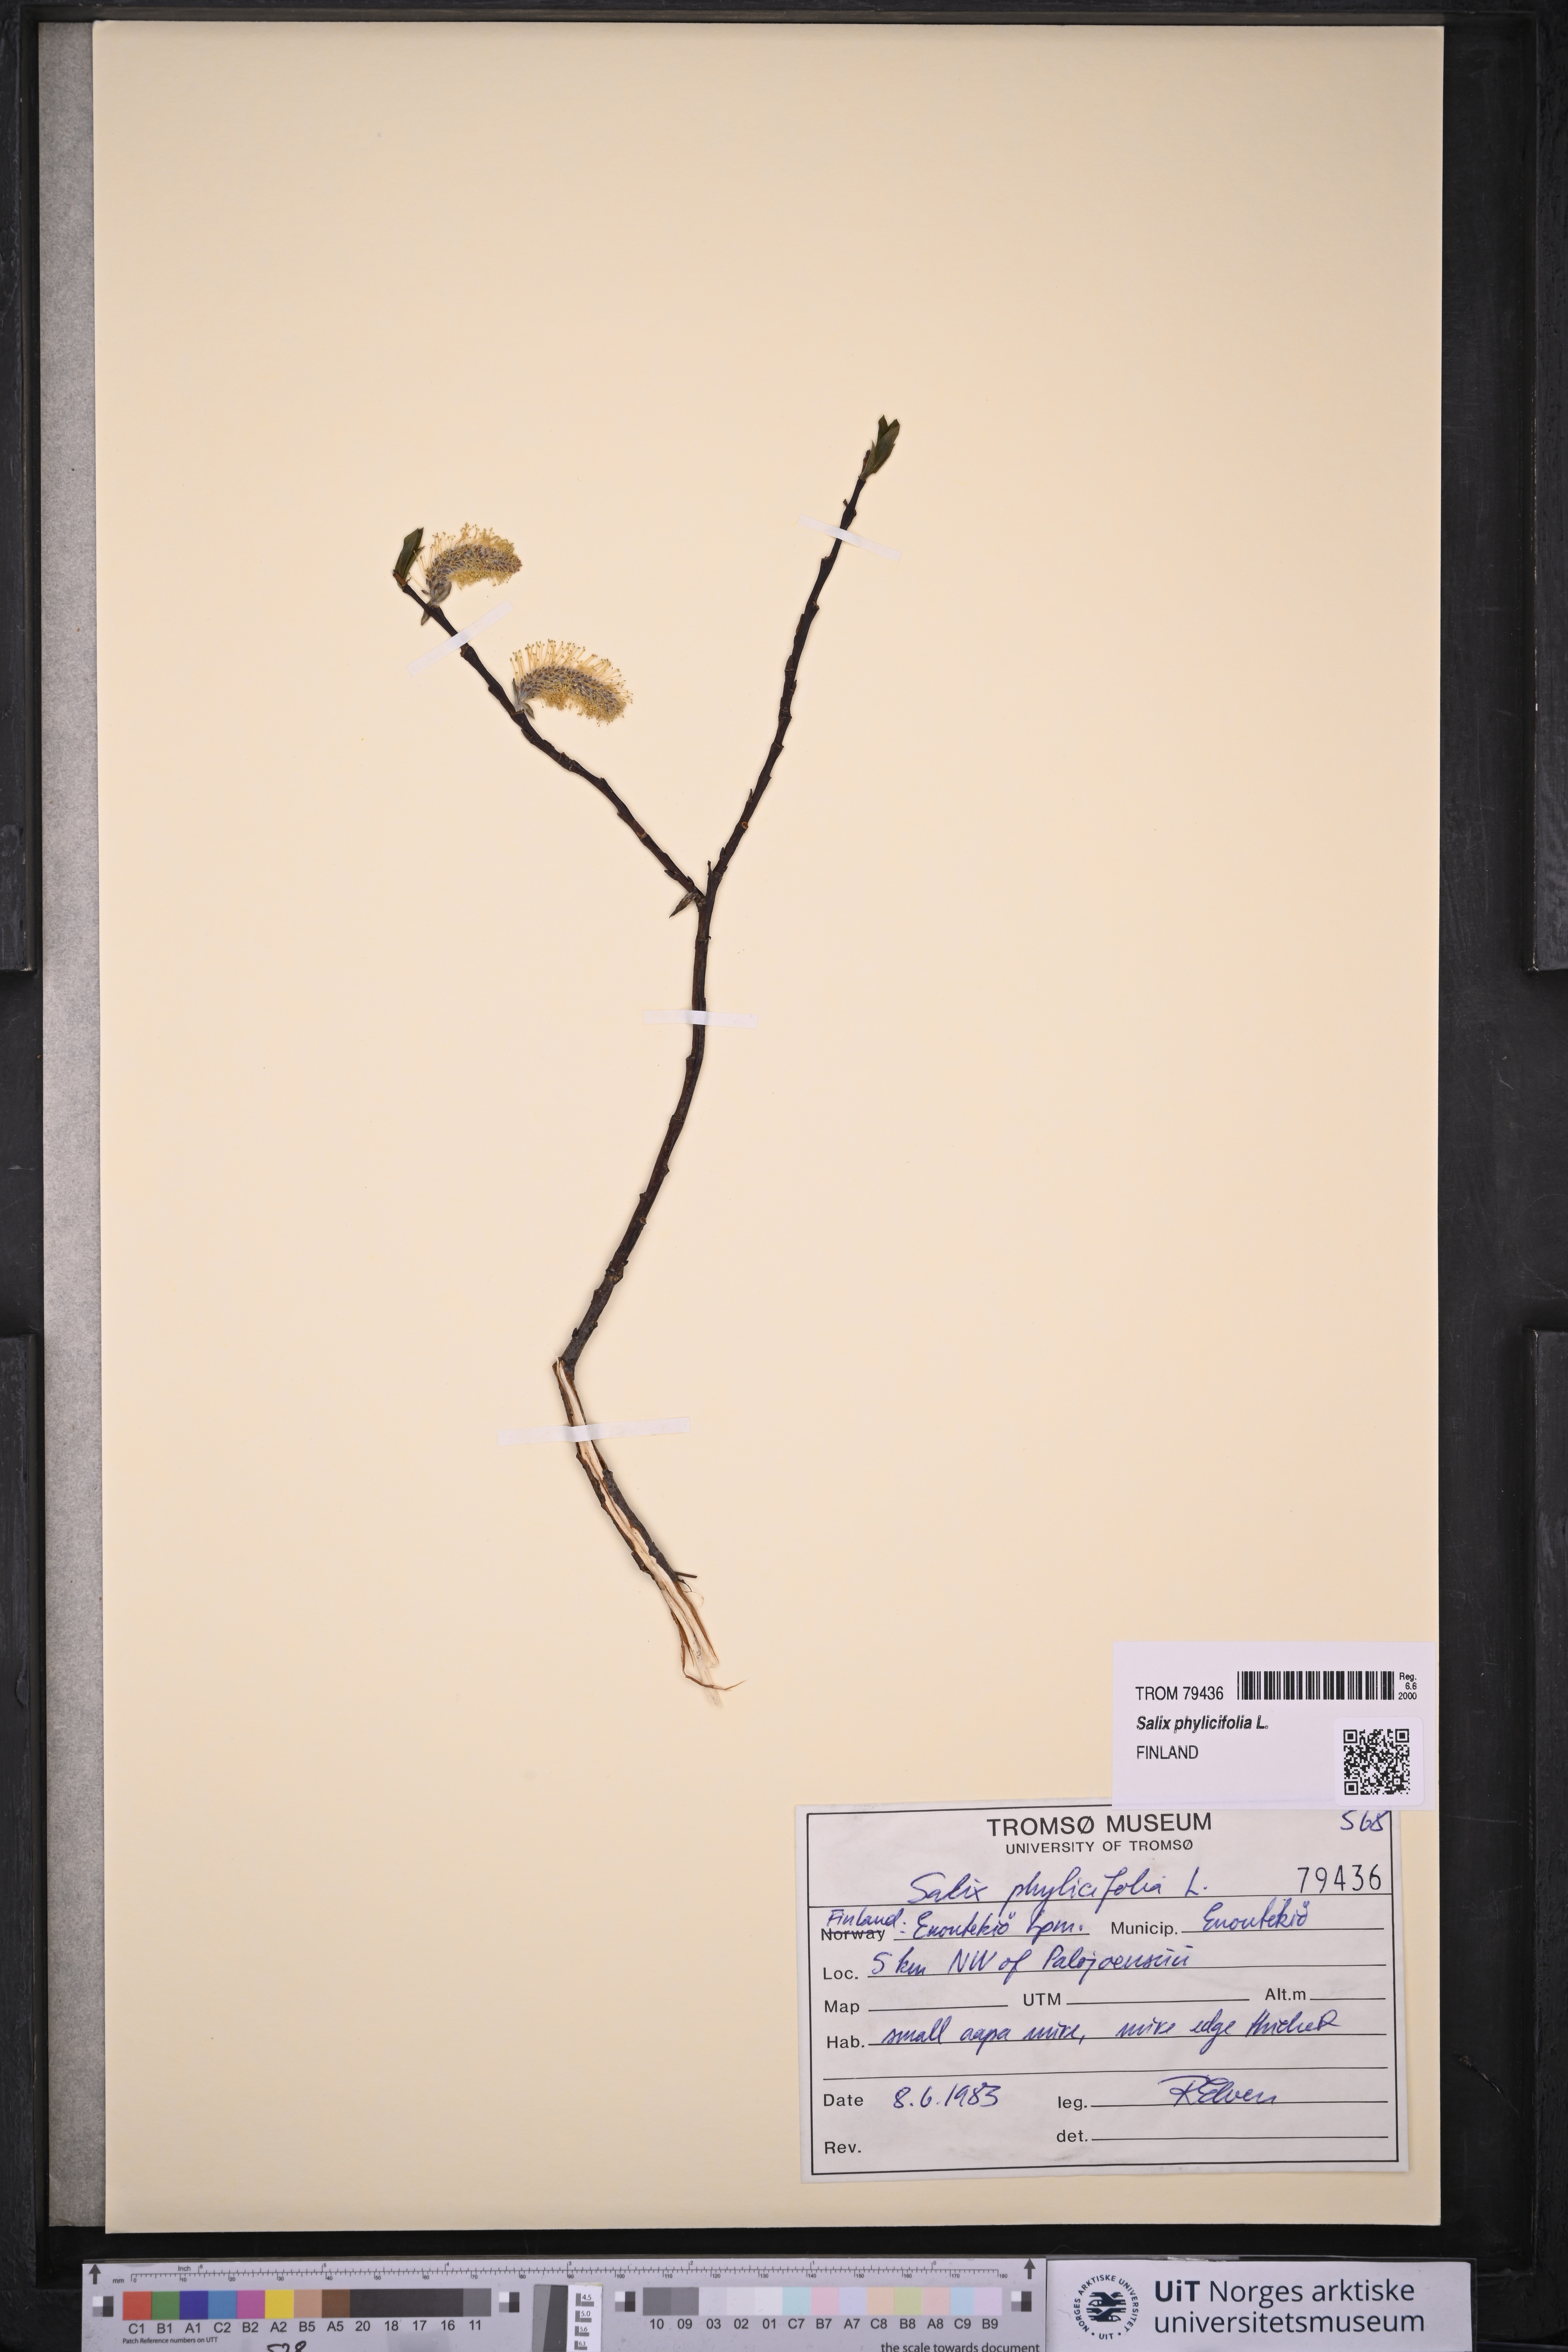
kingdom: Plantae
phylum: Tracheophyta
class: Magnoliopsida
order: Malpighiales
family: Salicaceae
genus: Salix
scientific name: Salix phylicifolia
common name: Tea-leaved willow
